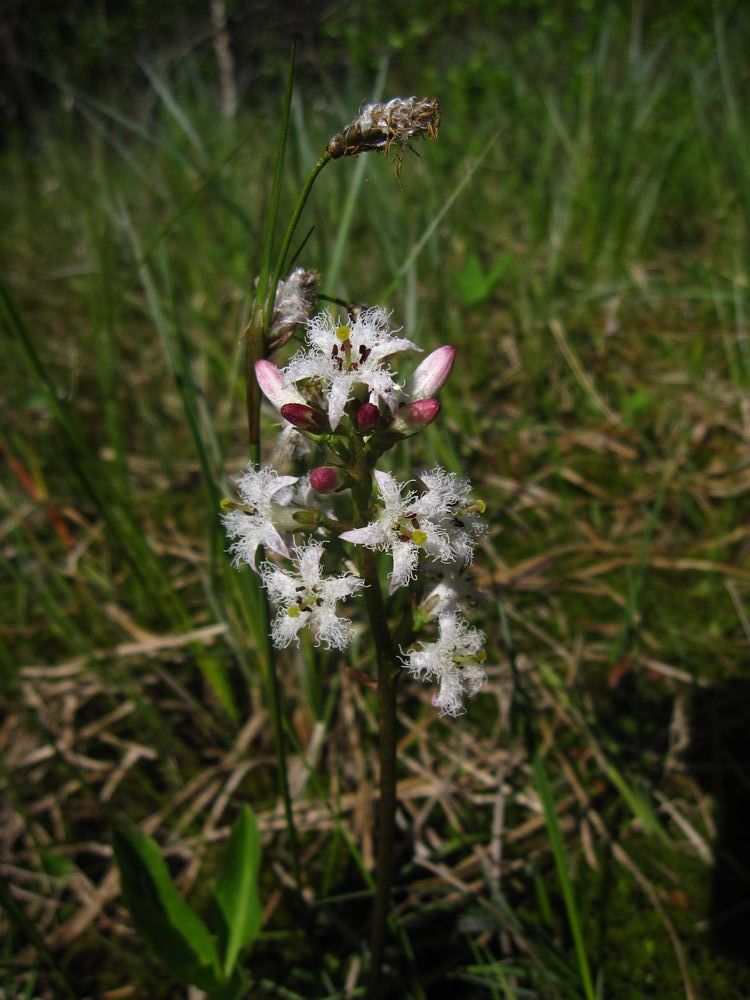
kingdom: Plantae
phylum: Tracheophyta
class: Magnoliopsida
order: Asterales
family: Menyanthaceae
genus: Menyanthes
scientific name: Menyanthes trifoliata
